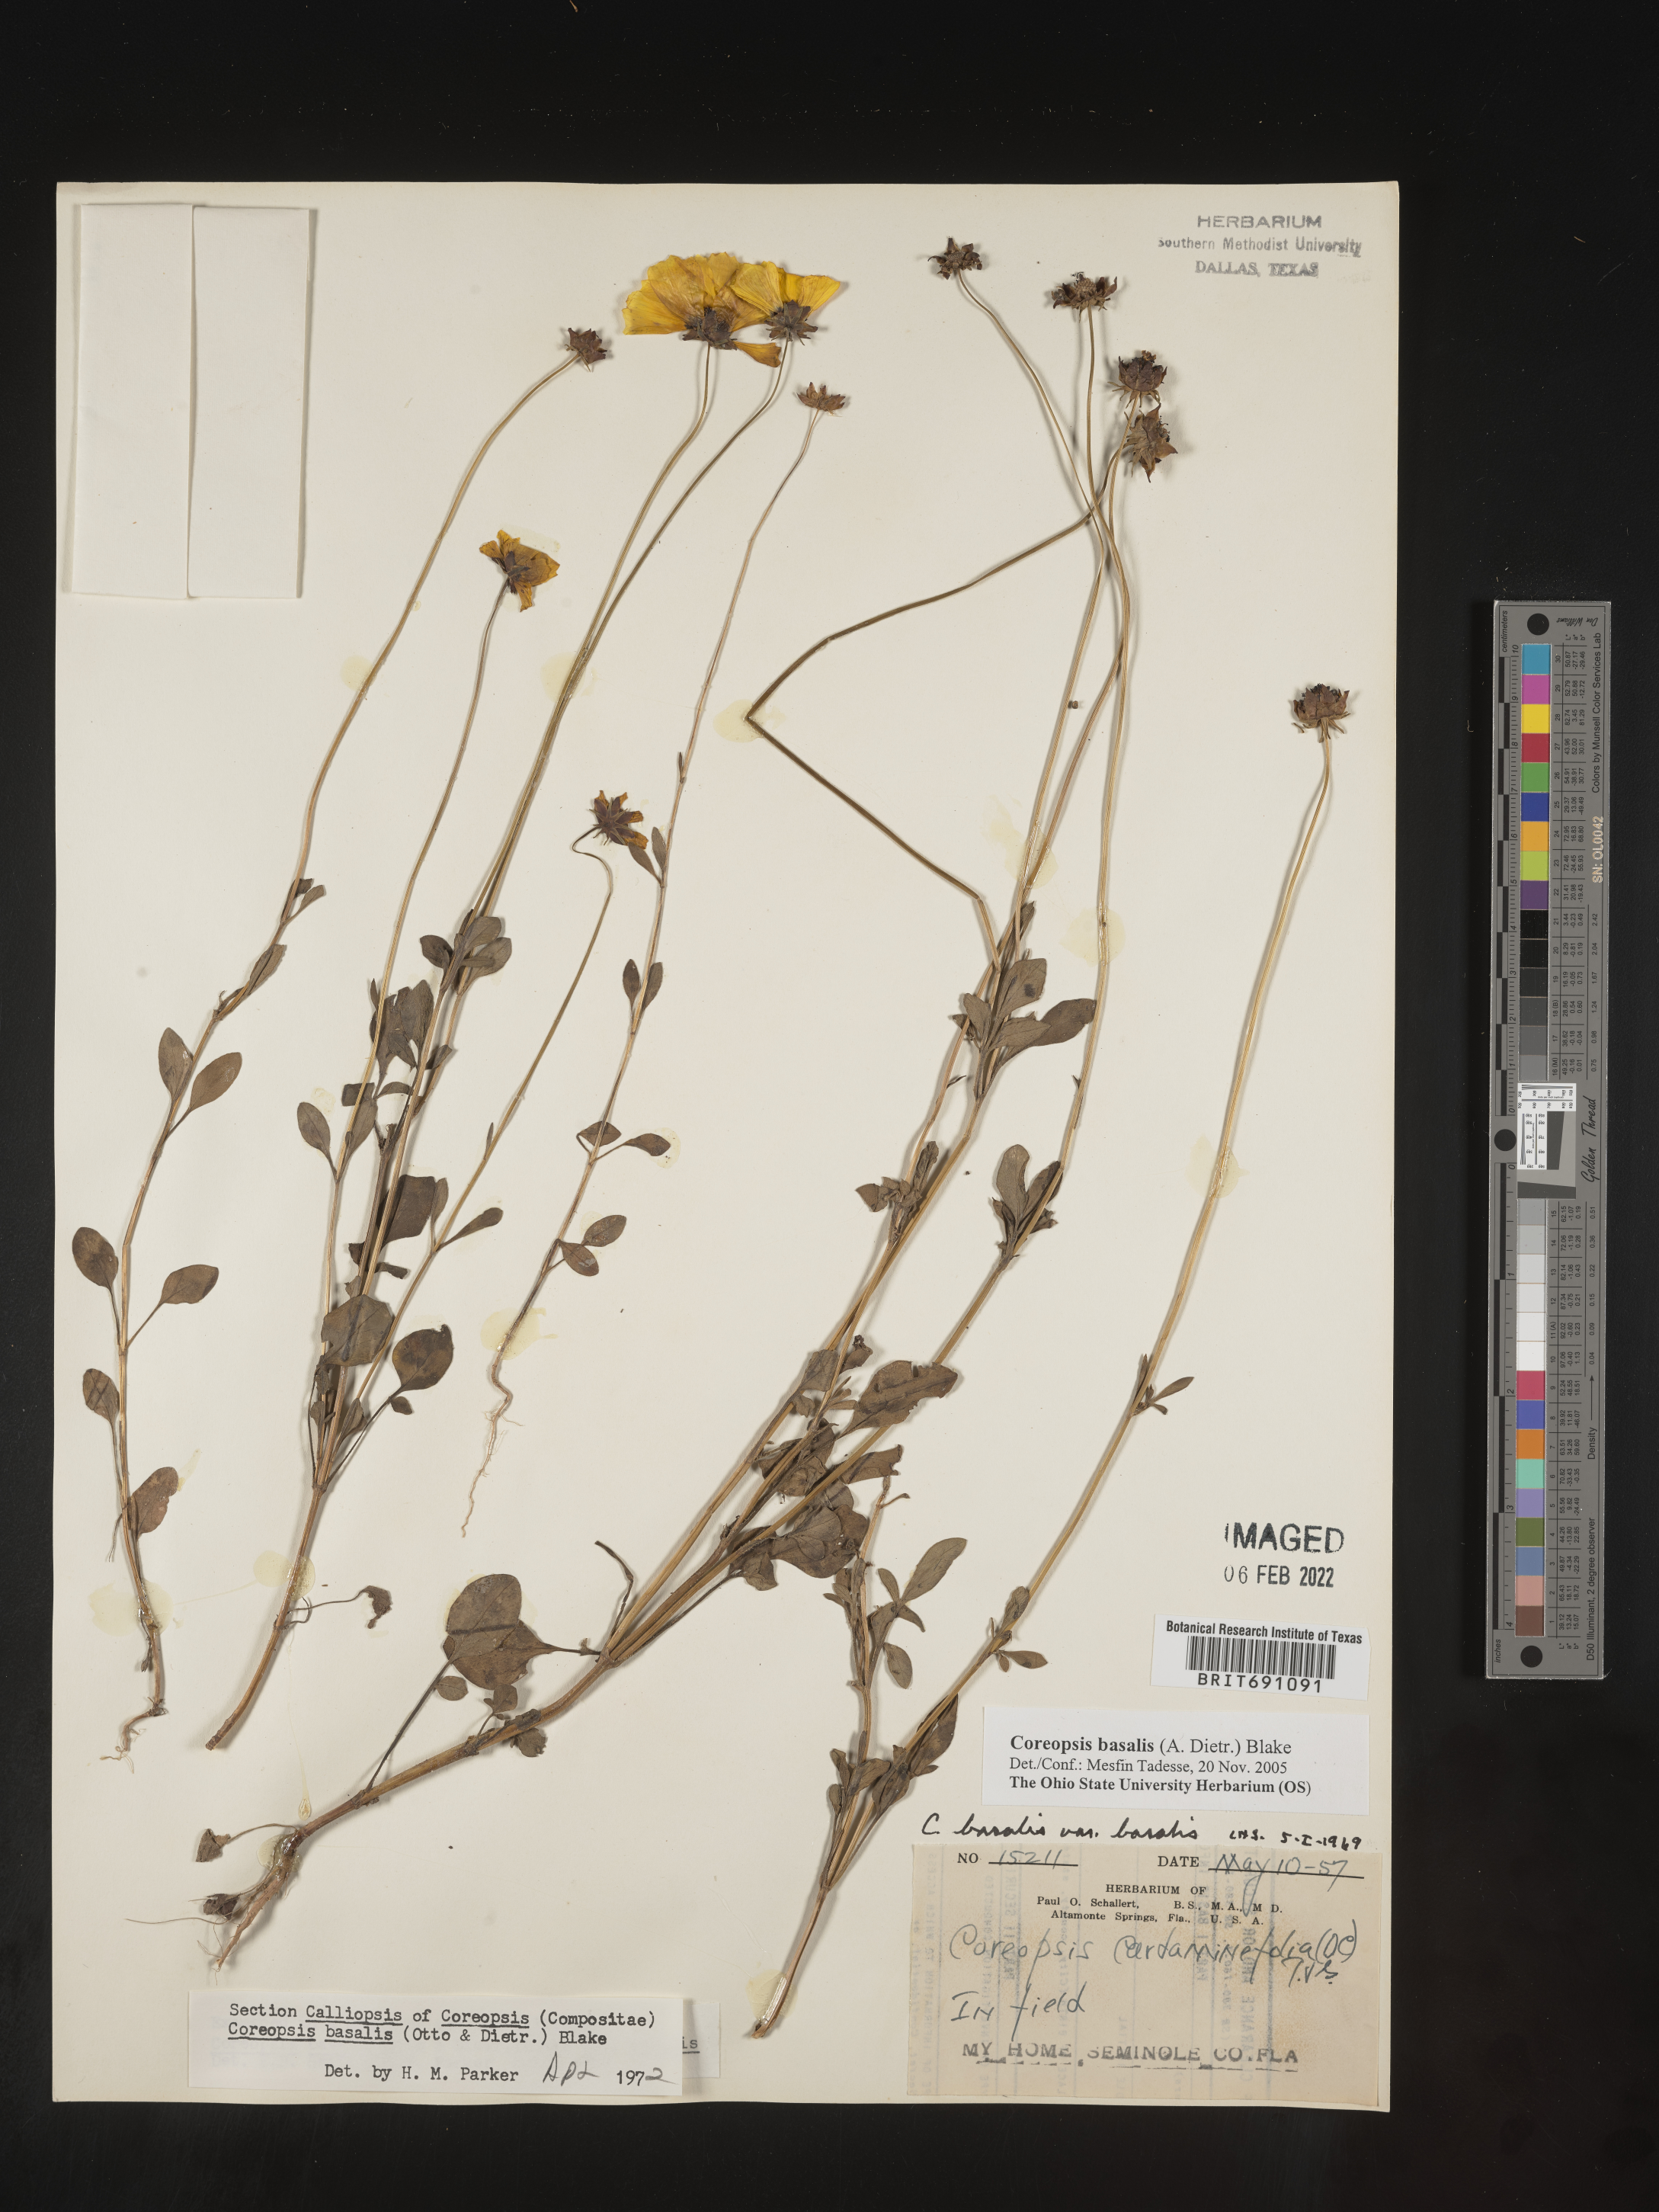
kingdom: Plantae
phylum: Tracheophyta
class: Magnoliopsida
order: Asterales
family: Asteraceae
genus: Coreopsis
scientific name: Coreopsis
